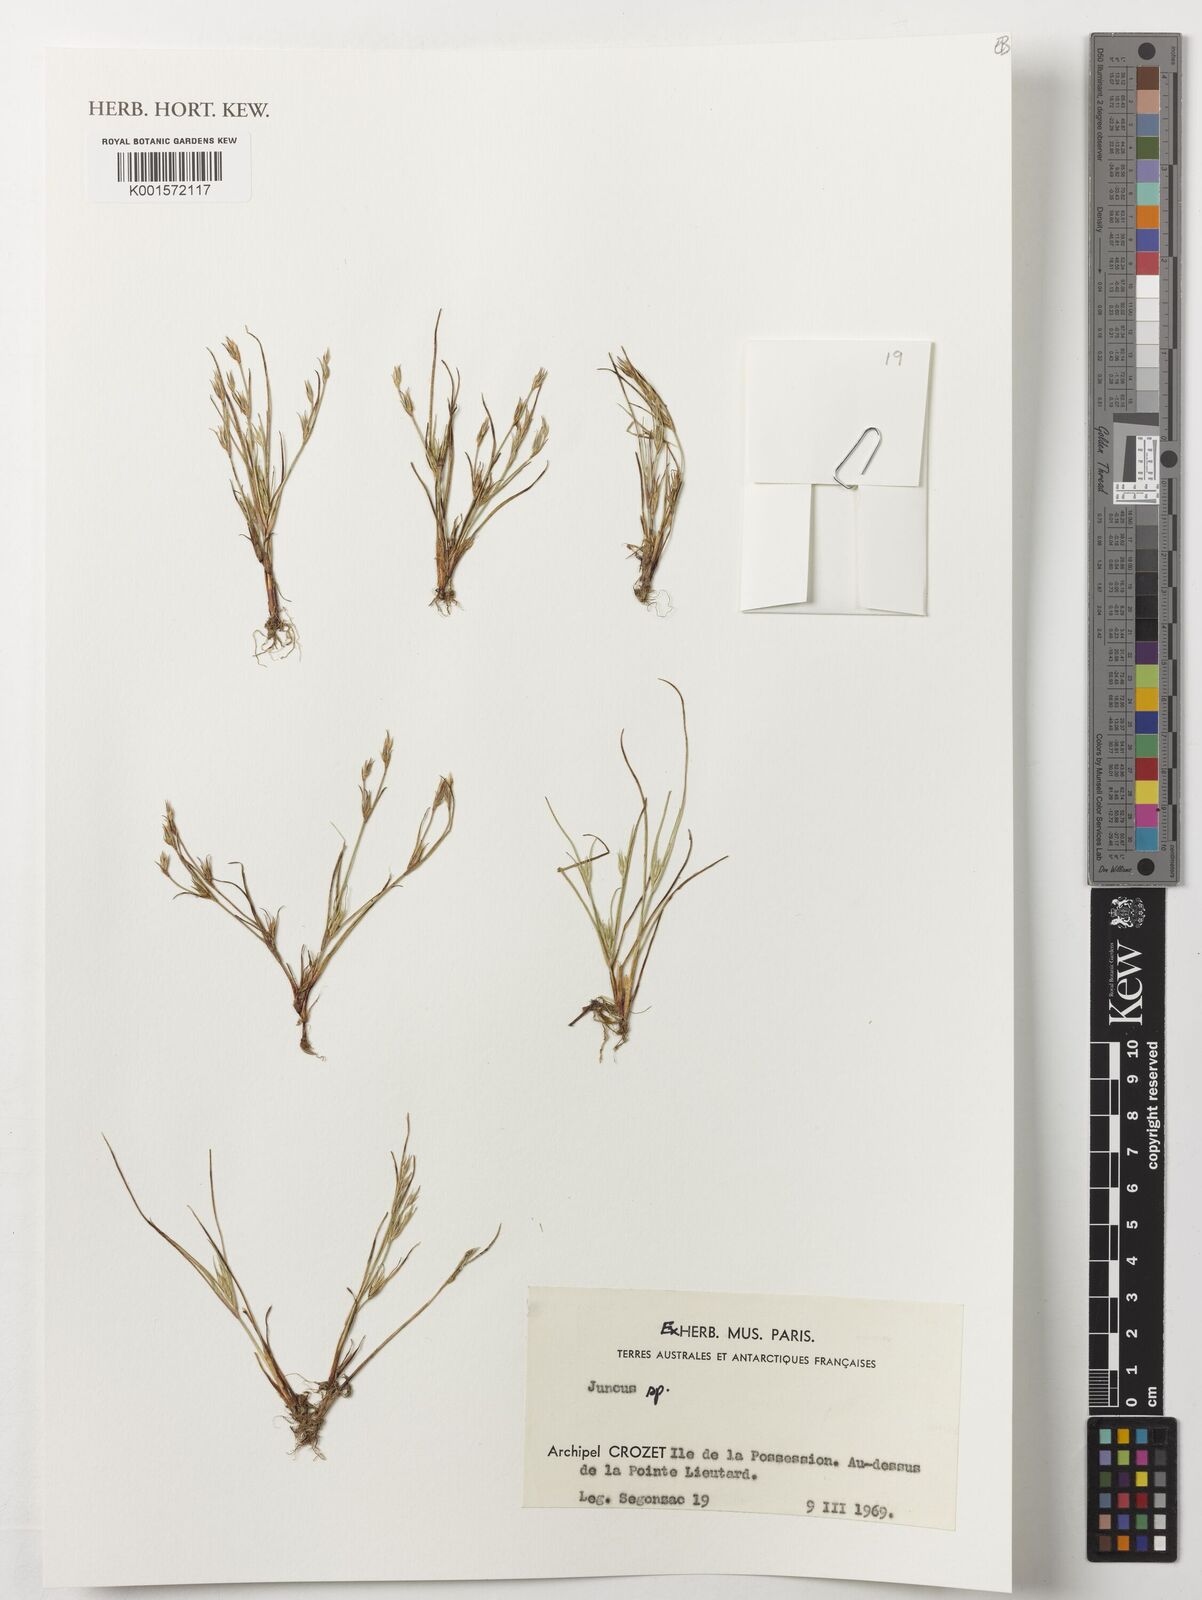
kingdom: Plantae
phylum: Tracheophyta
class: Liliopsida
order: Poales
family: Juncaceae
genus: Juncus
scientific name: Juncus
